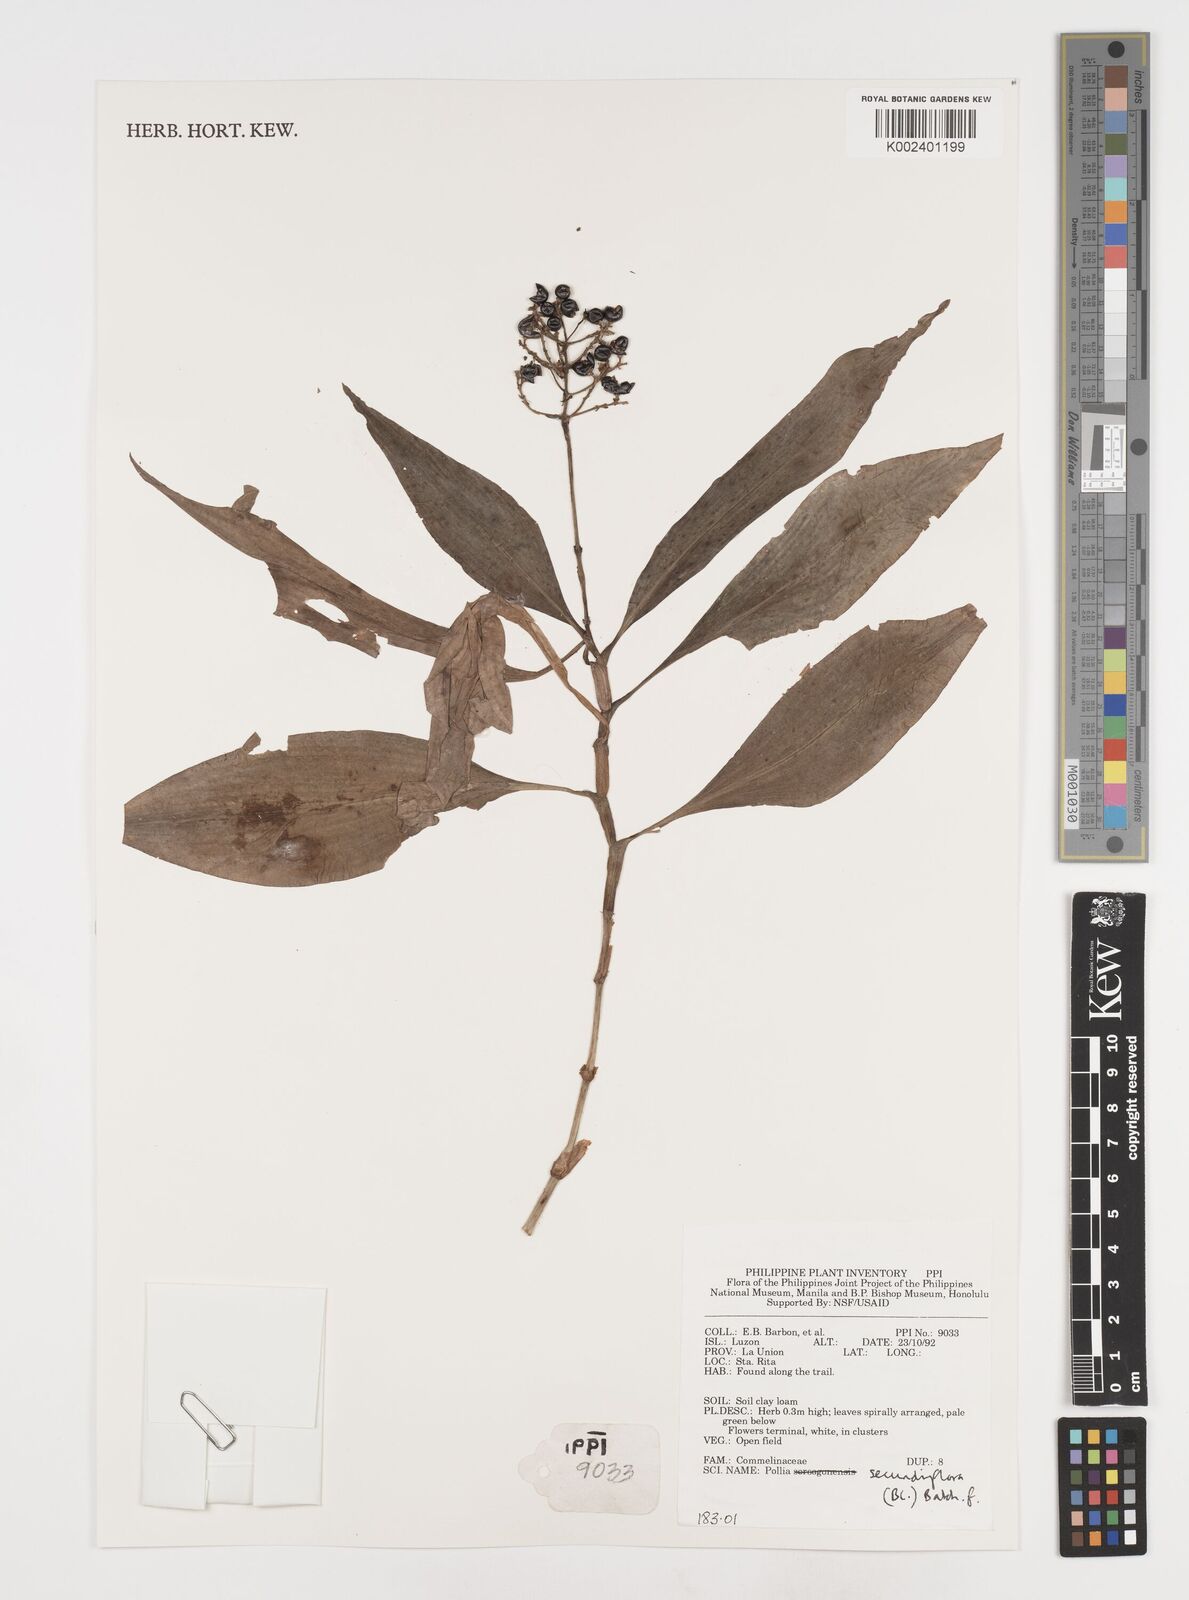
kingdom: Plantae
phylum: Tracheophyta
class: Liliopsida
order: Commelinales
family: Commelinaceae
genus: Pollia
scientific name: Pollia secundiflora
